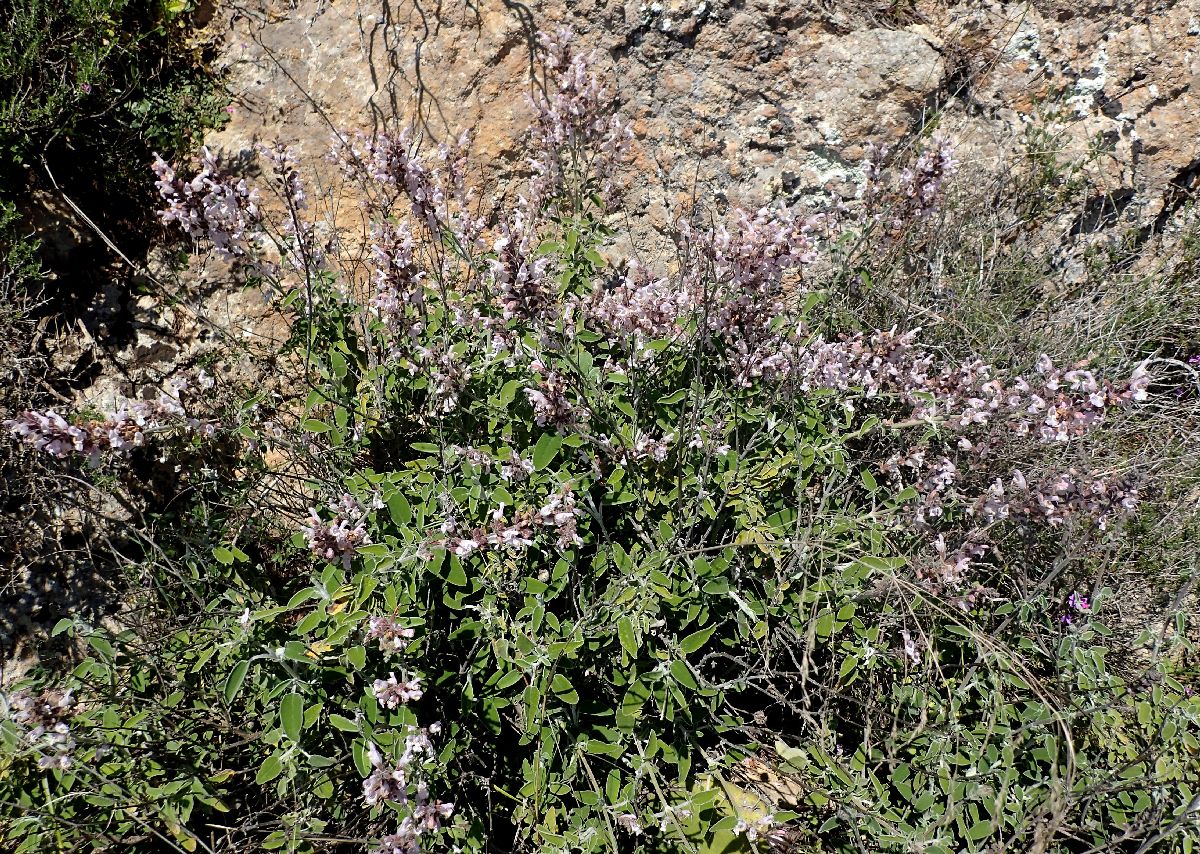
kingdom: Plantae
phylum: Tracheophyta
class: Magnoliopsida
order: Lamiales
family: Lamiaceae
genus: Salvia
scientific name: Salvia fruticosa
